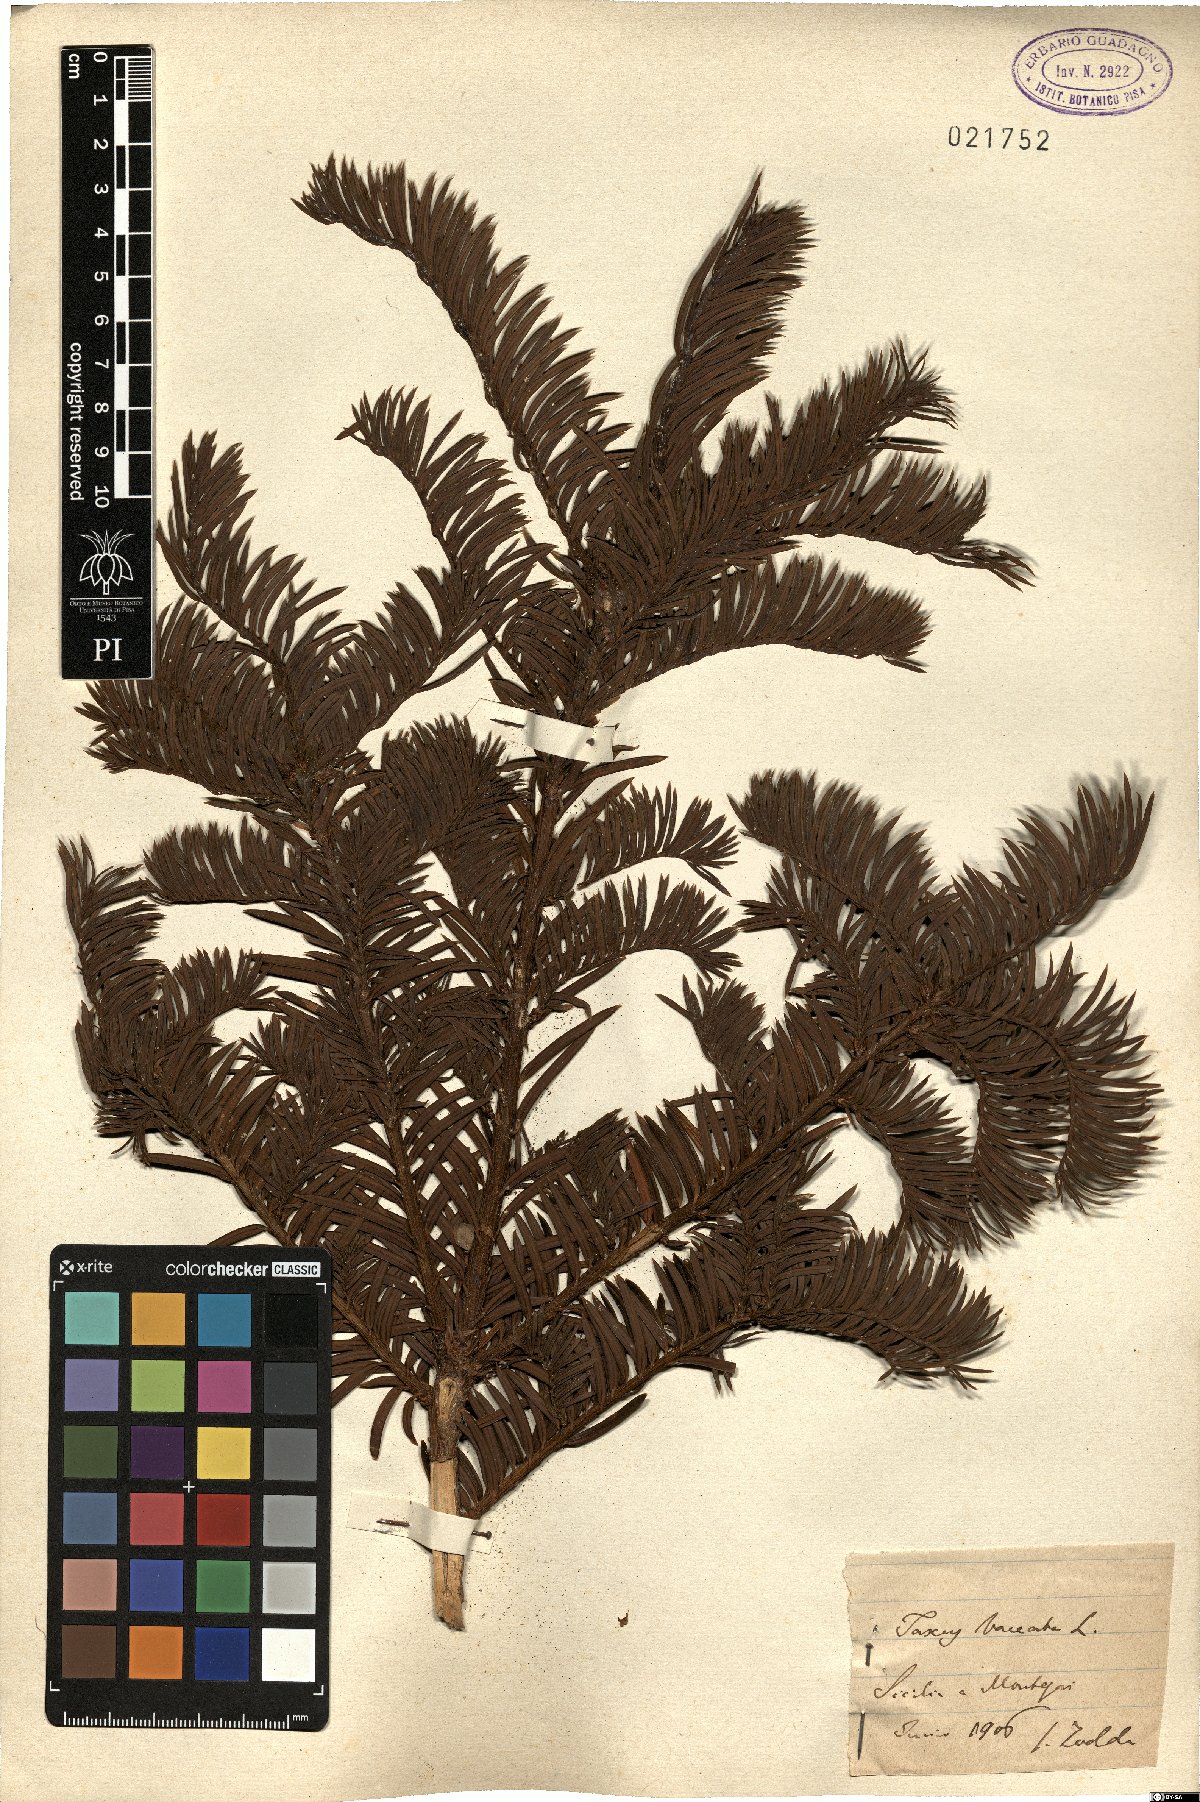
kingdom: Plantae
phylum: Tracheophyta
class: Pinopsida
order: Pinales
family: Taxaceae
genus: Taxus
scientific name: Taxus baccata
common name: Yew
